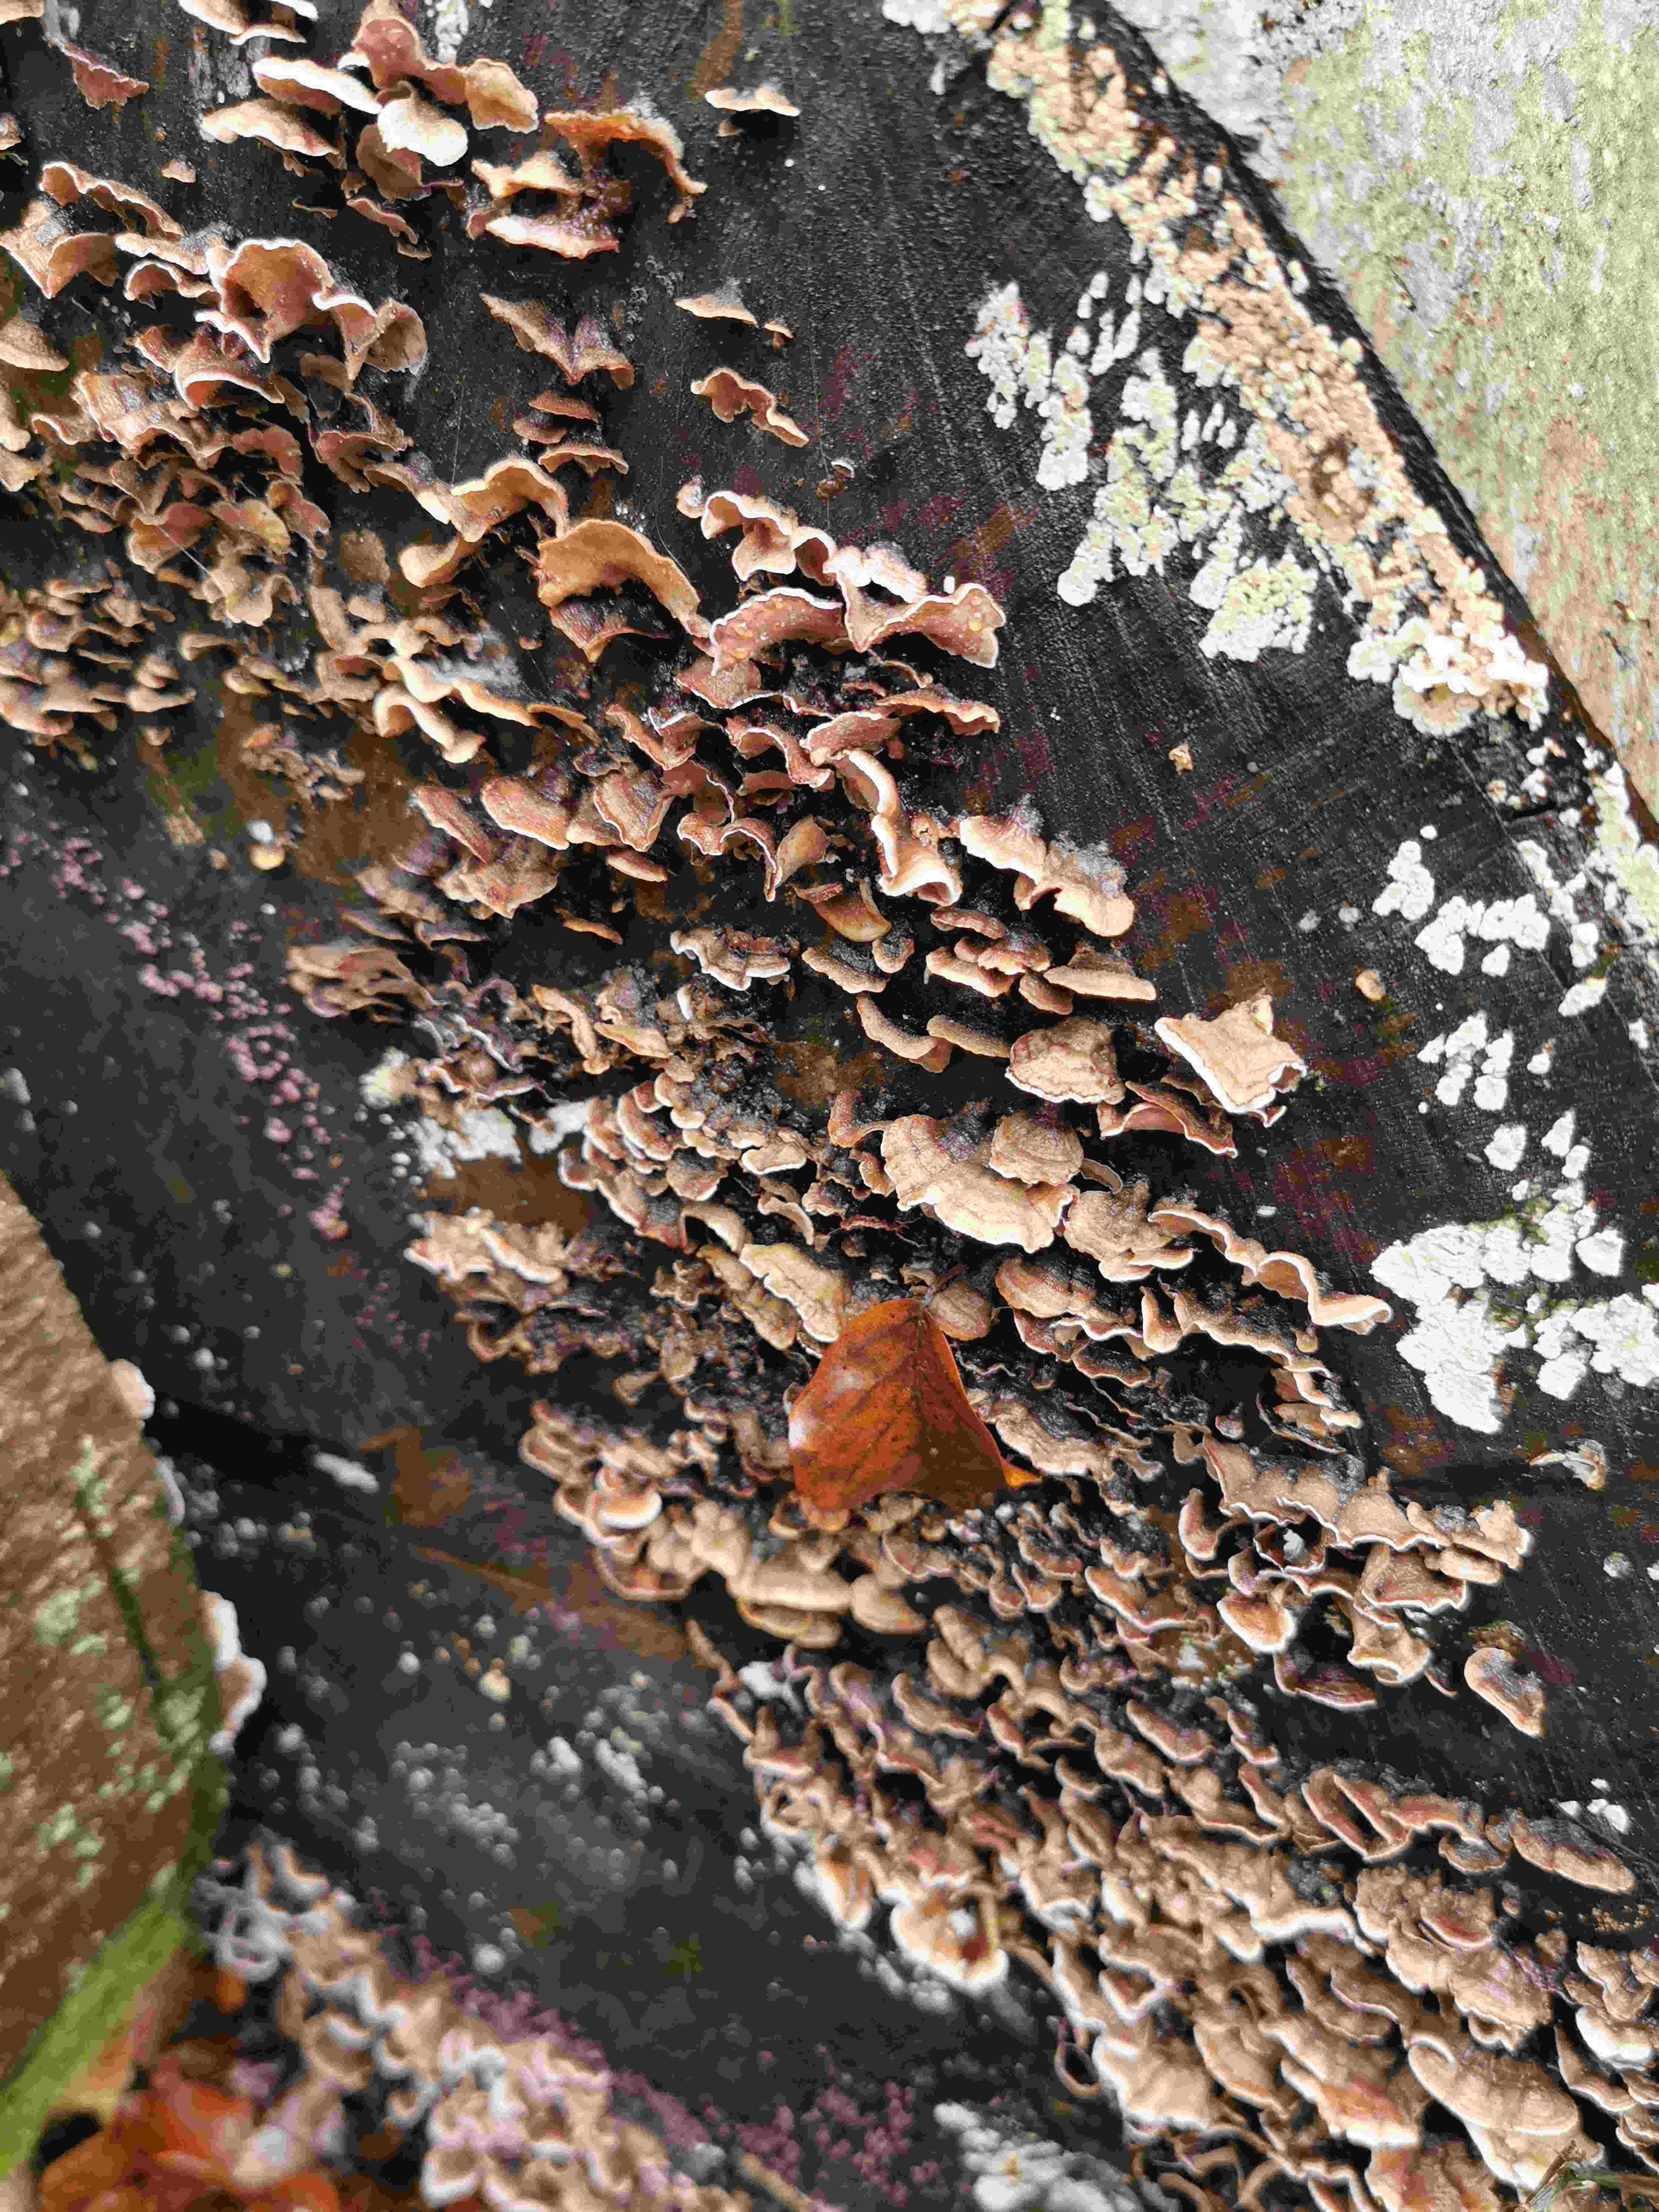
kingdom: Fungi
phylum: Basidiomycota
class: Agaricomycetes
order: Agaricales
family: Cyphellaceae
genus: Chondrostereum
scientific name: Chondrostereum purpureum
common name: purpurlædersvamp
